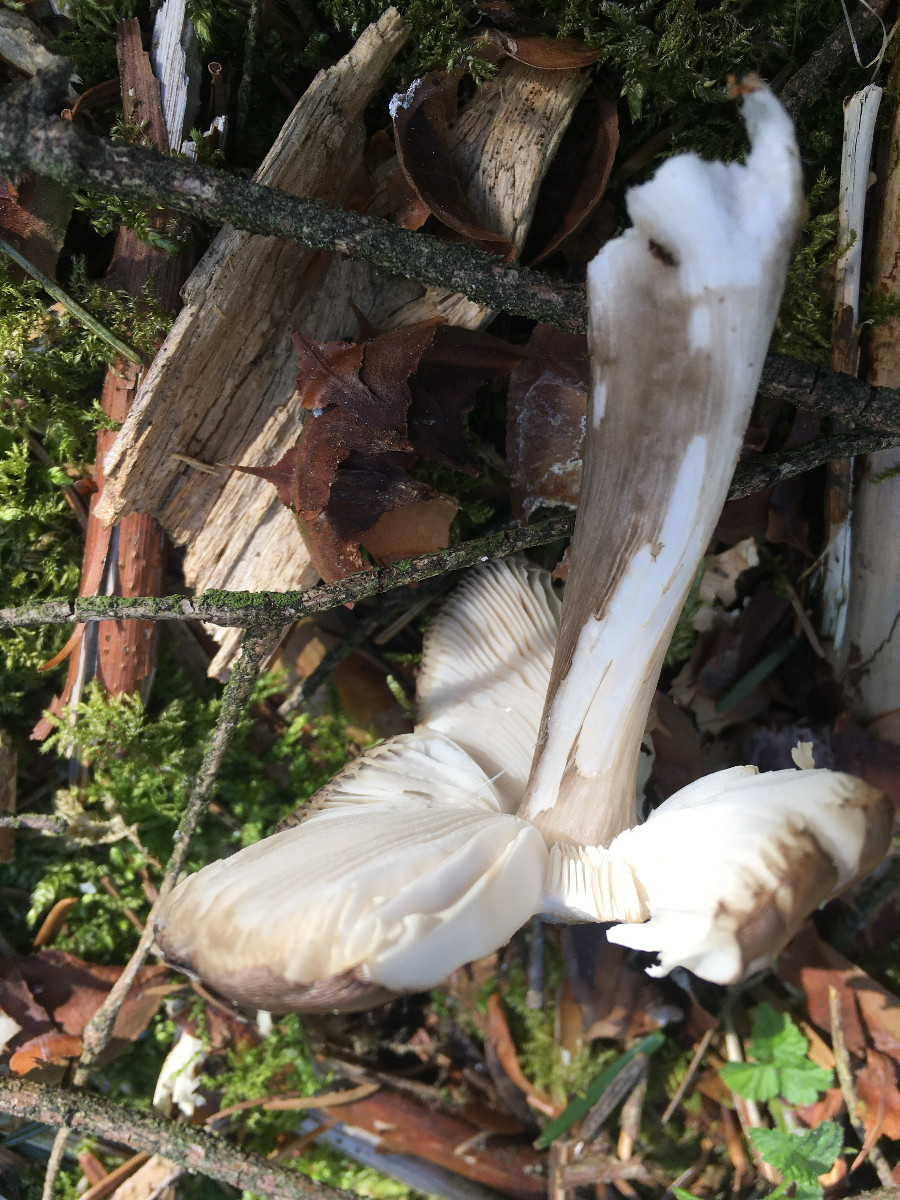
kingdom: Fungi
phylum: Basidiomycota
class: Agaricomycetes
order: Agaricales
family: Pluteaceae
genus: Pluteus
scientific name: Pluteus
